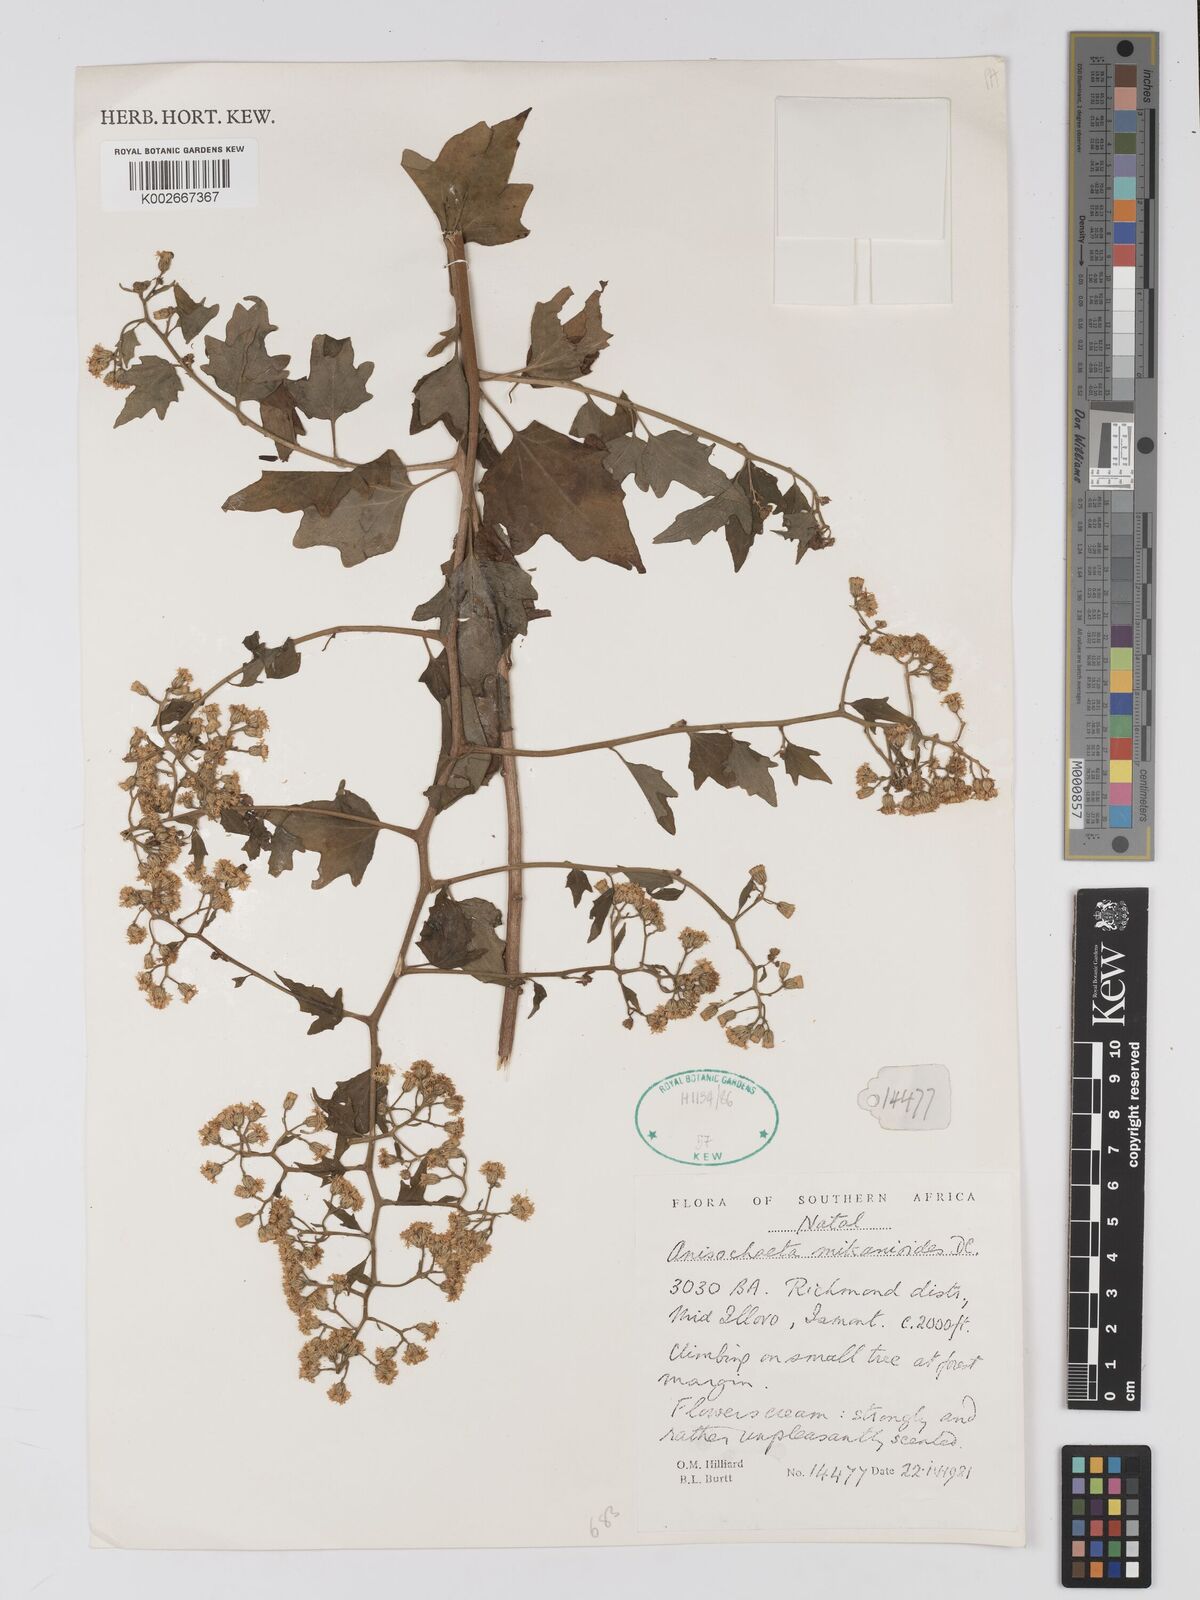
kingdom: Plantae
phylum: Tracheophyta
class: Magnoliopsida
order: Asterales
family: Asteraceae
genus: Anisochaeta
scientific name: Anisochaeta mikanioides
